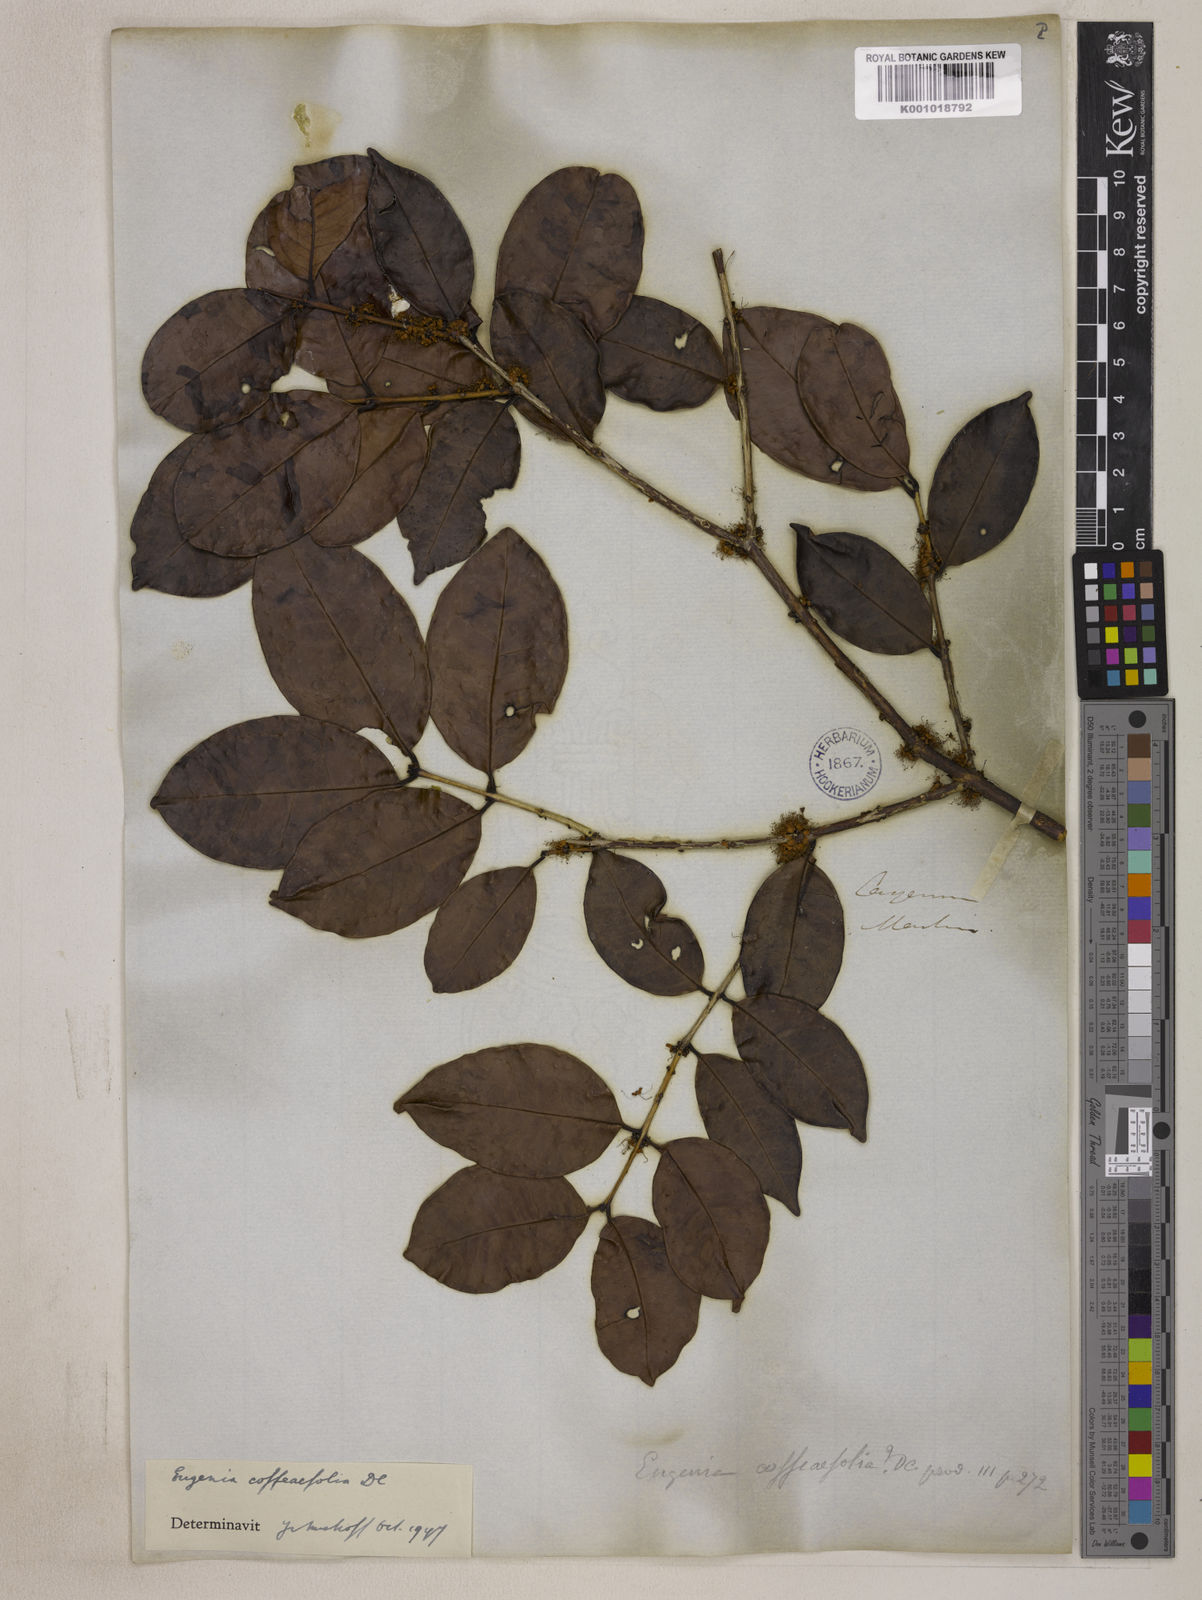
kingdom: Plantae
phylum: Tracheophyta
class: Magnoliopsida
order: Myrtales
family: Myrtaceae
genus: Eugenia
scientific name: Eugenia coffeifolia
